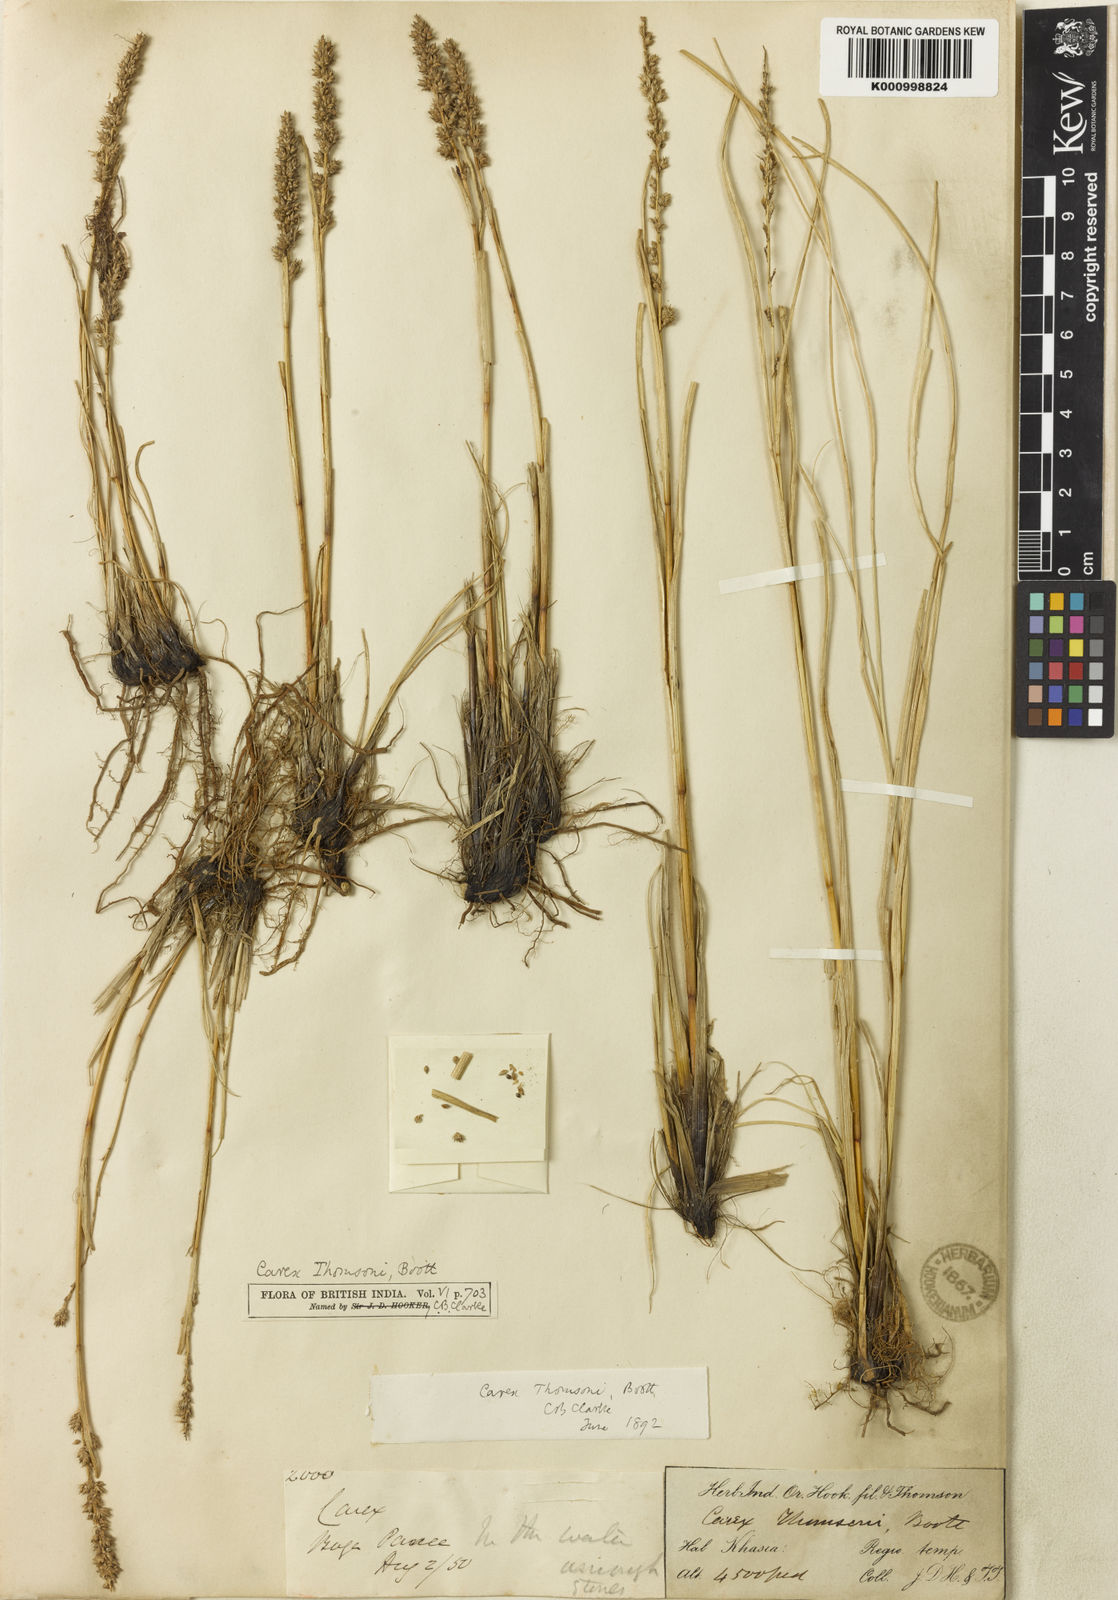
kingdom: Plantae
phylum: Tracheophyta
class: Liliopsida
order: Poales
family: Cyperaceae
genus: Carex
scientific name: Carex thomsonii
